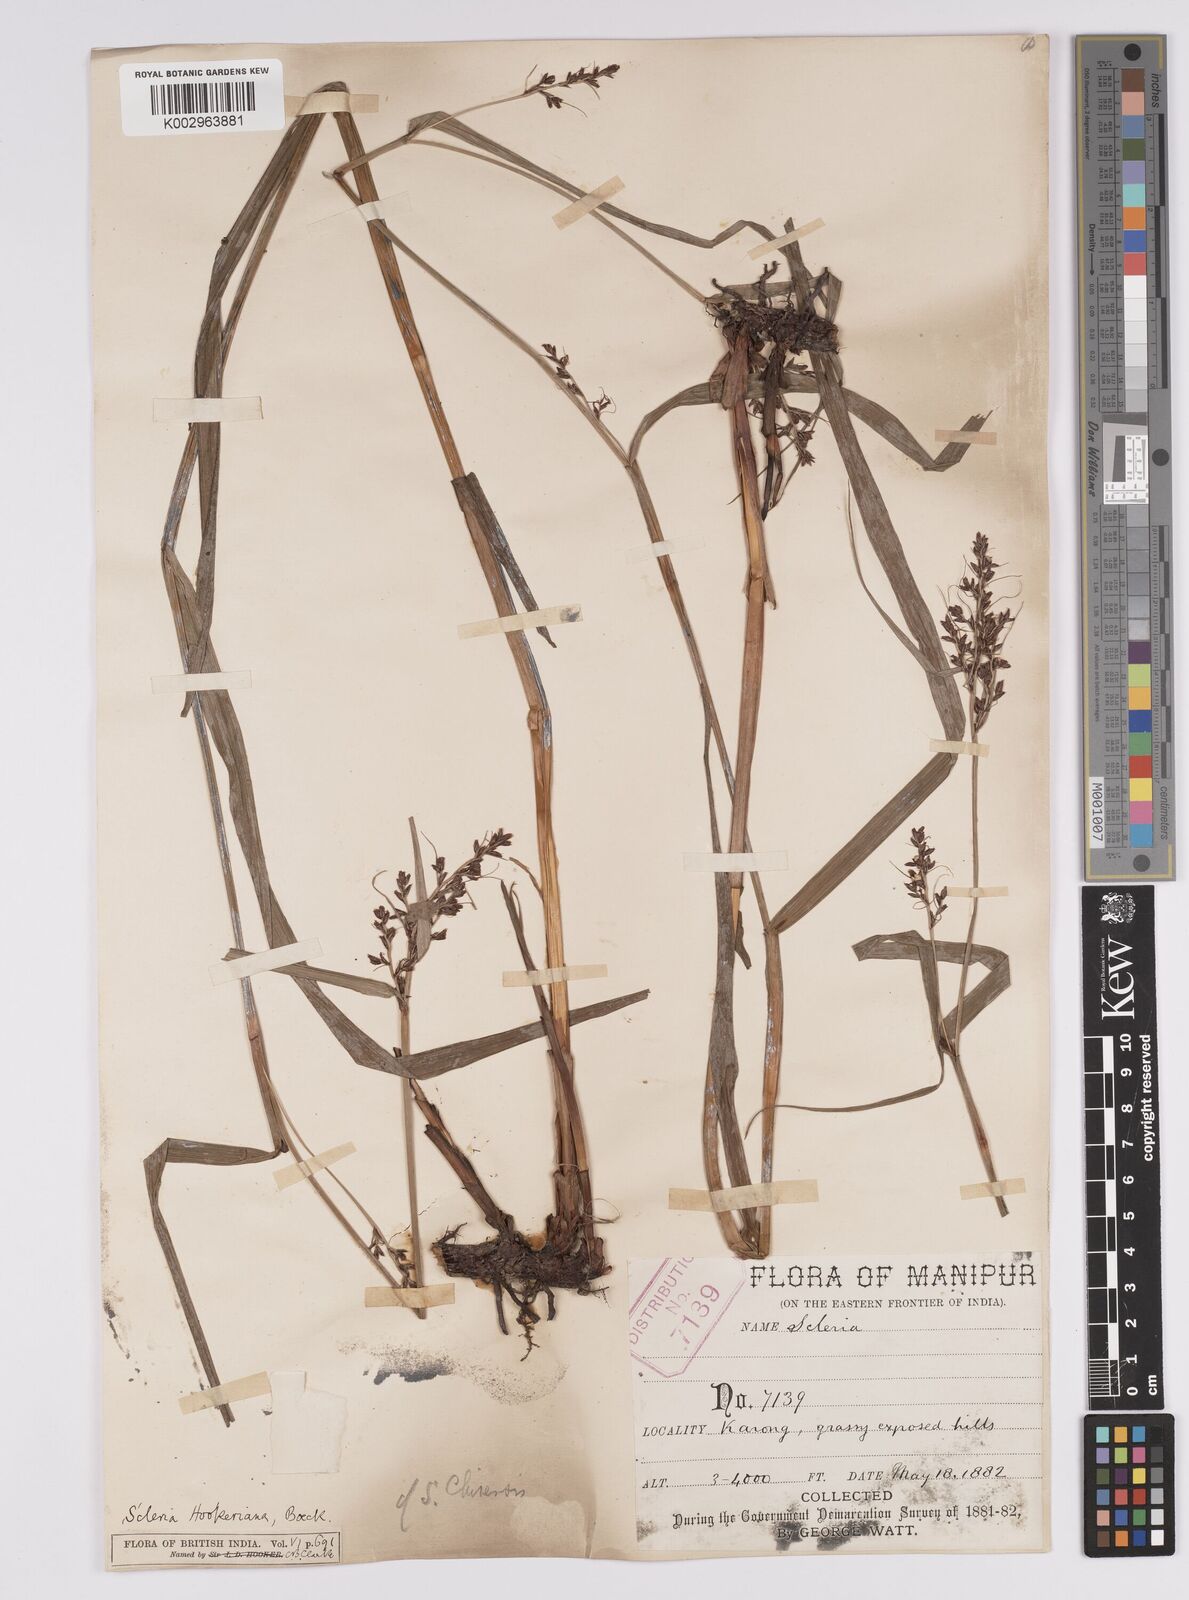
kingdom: Plantae
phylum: Tracheophyta
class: Liliopsida
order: Poales
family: Cyperaceae
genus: Scleria
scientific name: Scleria terrestris
